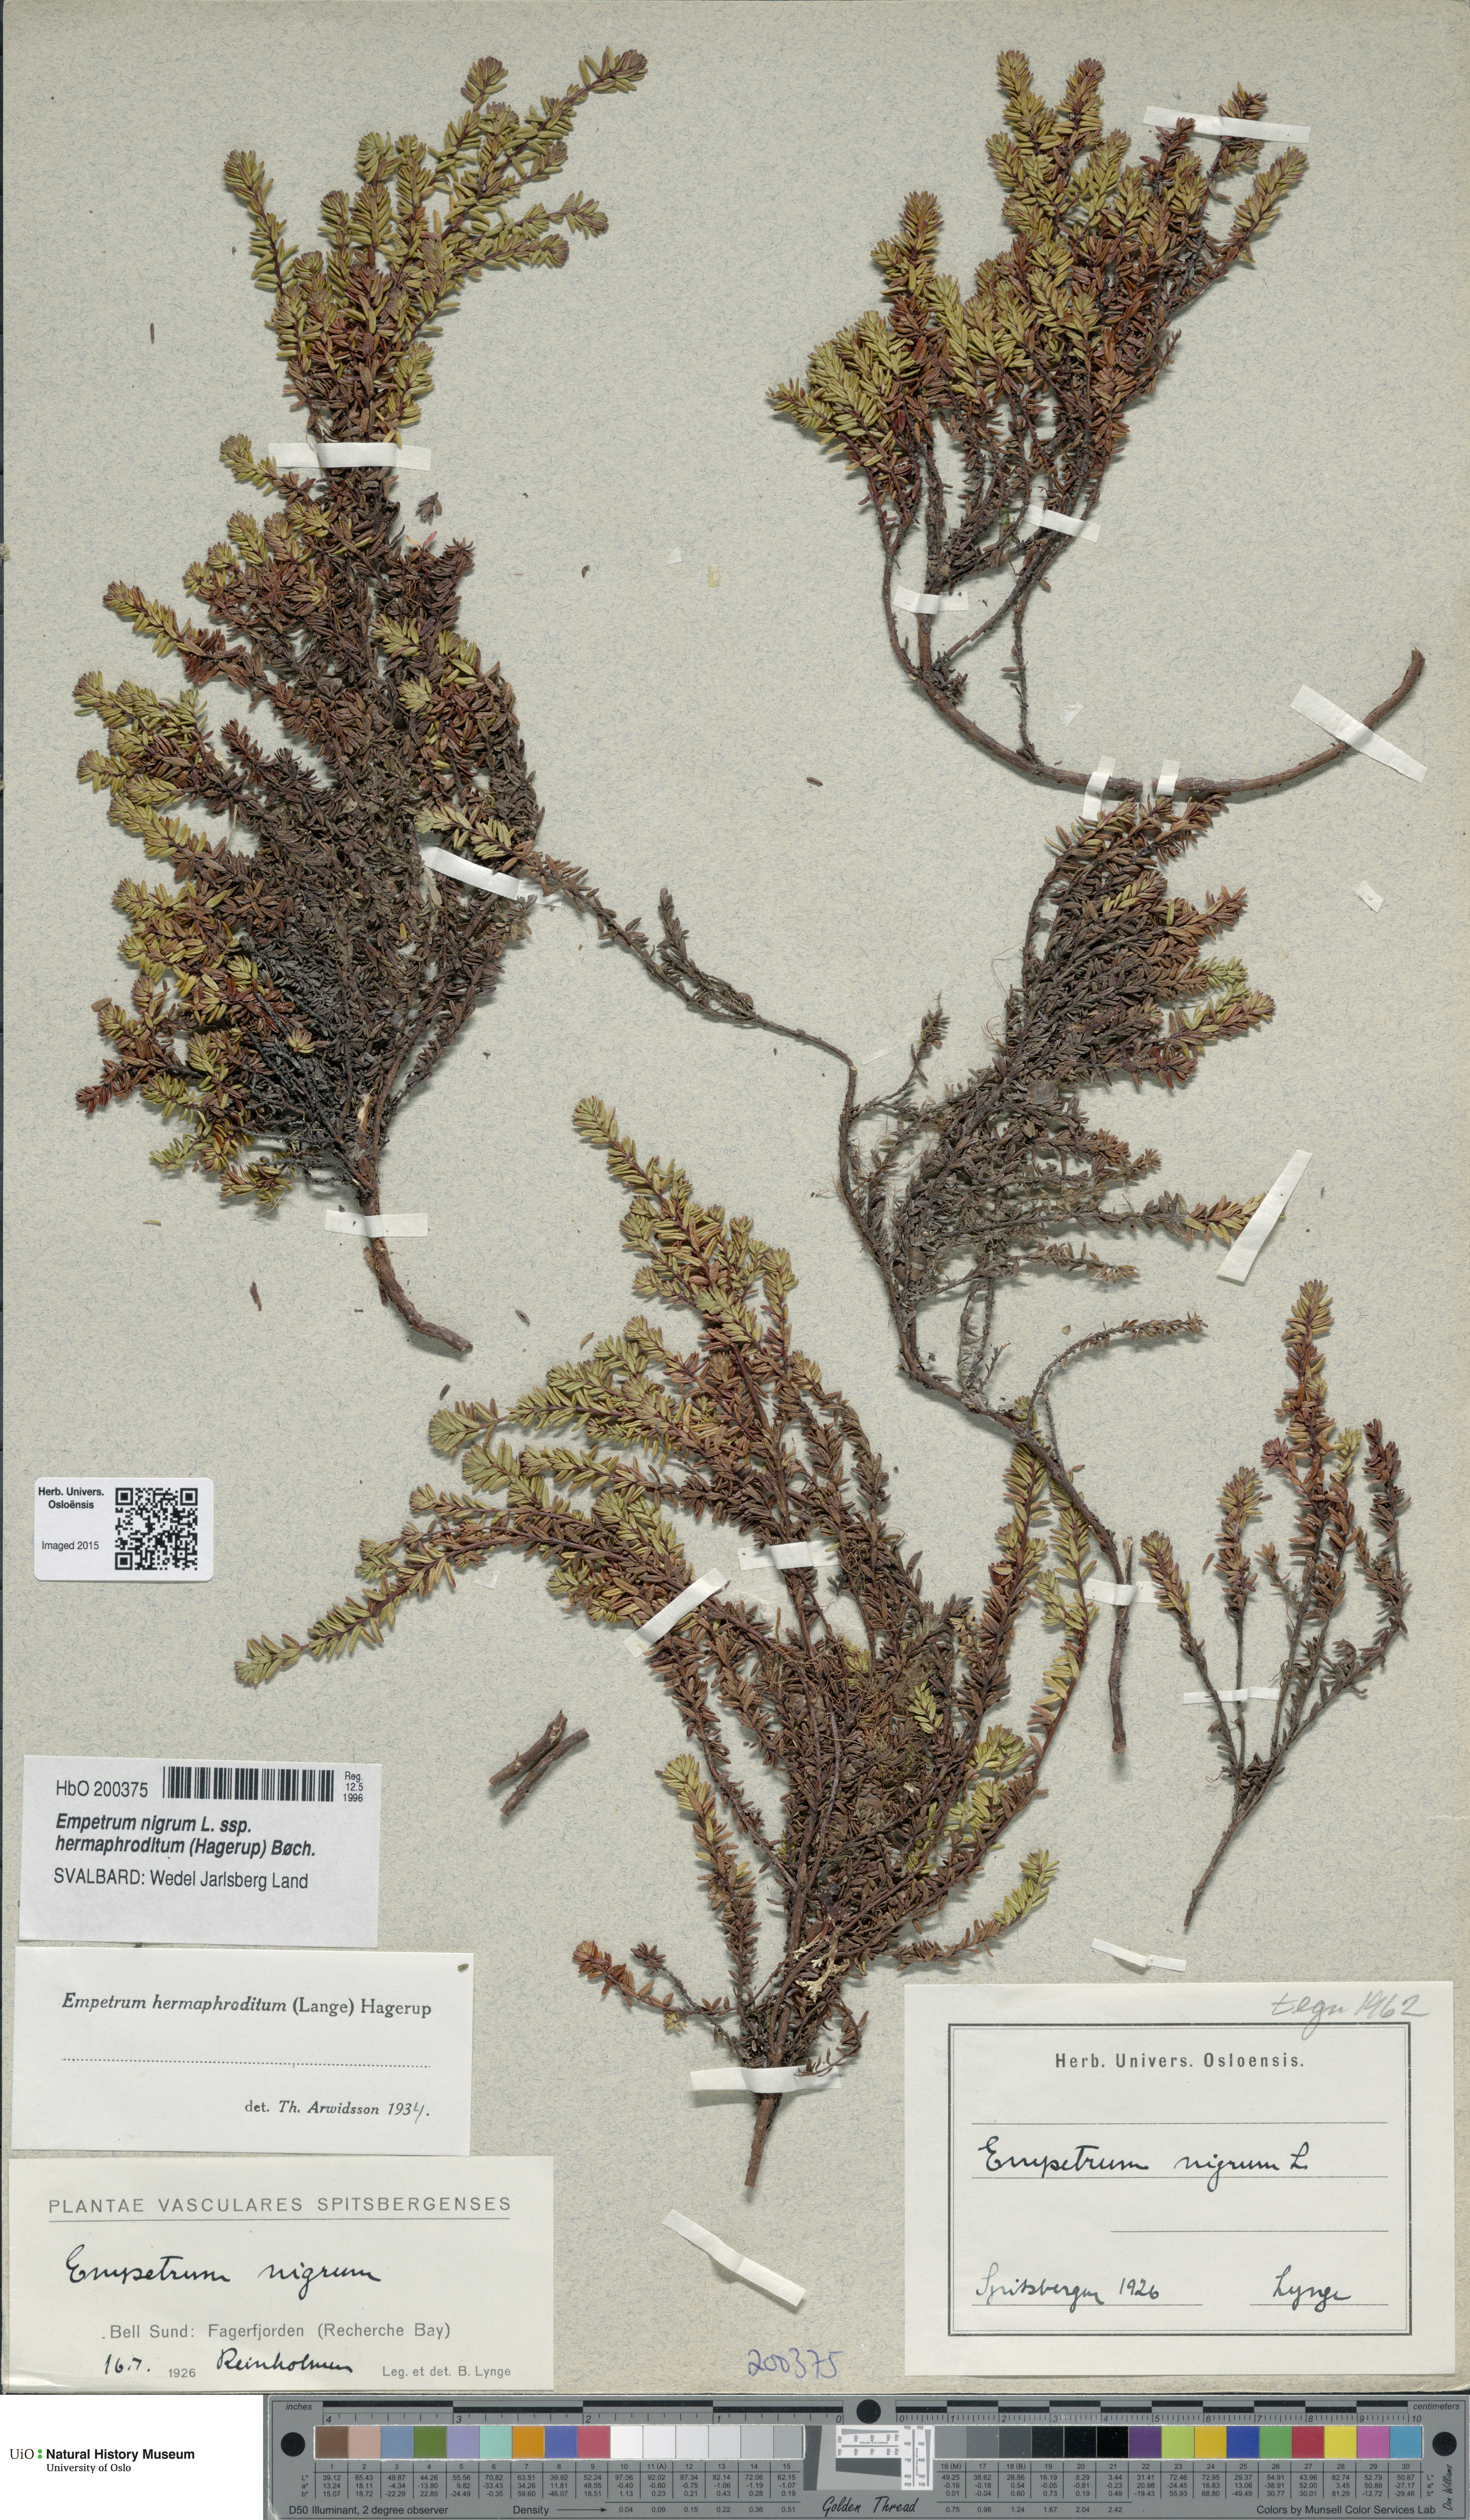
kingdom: Plantae
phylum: Tracheophyta
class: Magnoliopsida
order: Ericales
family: Ericaceae
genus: Empetrum
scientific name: Empetrum hermaphroditum
